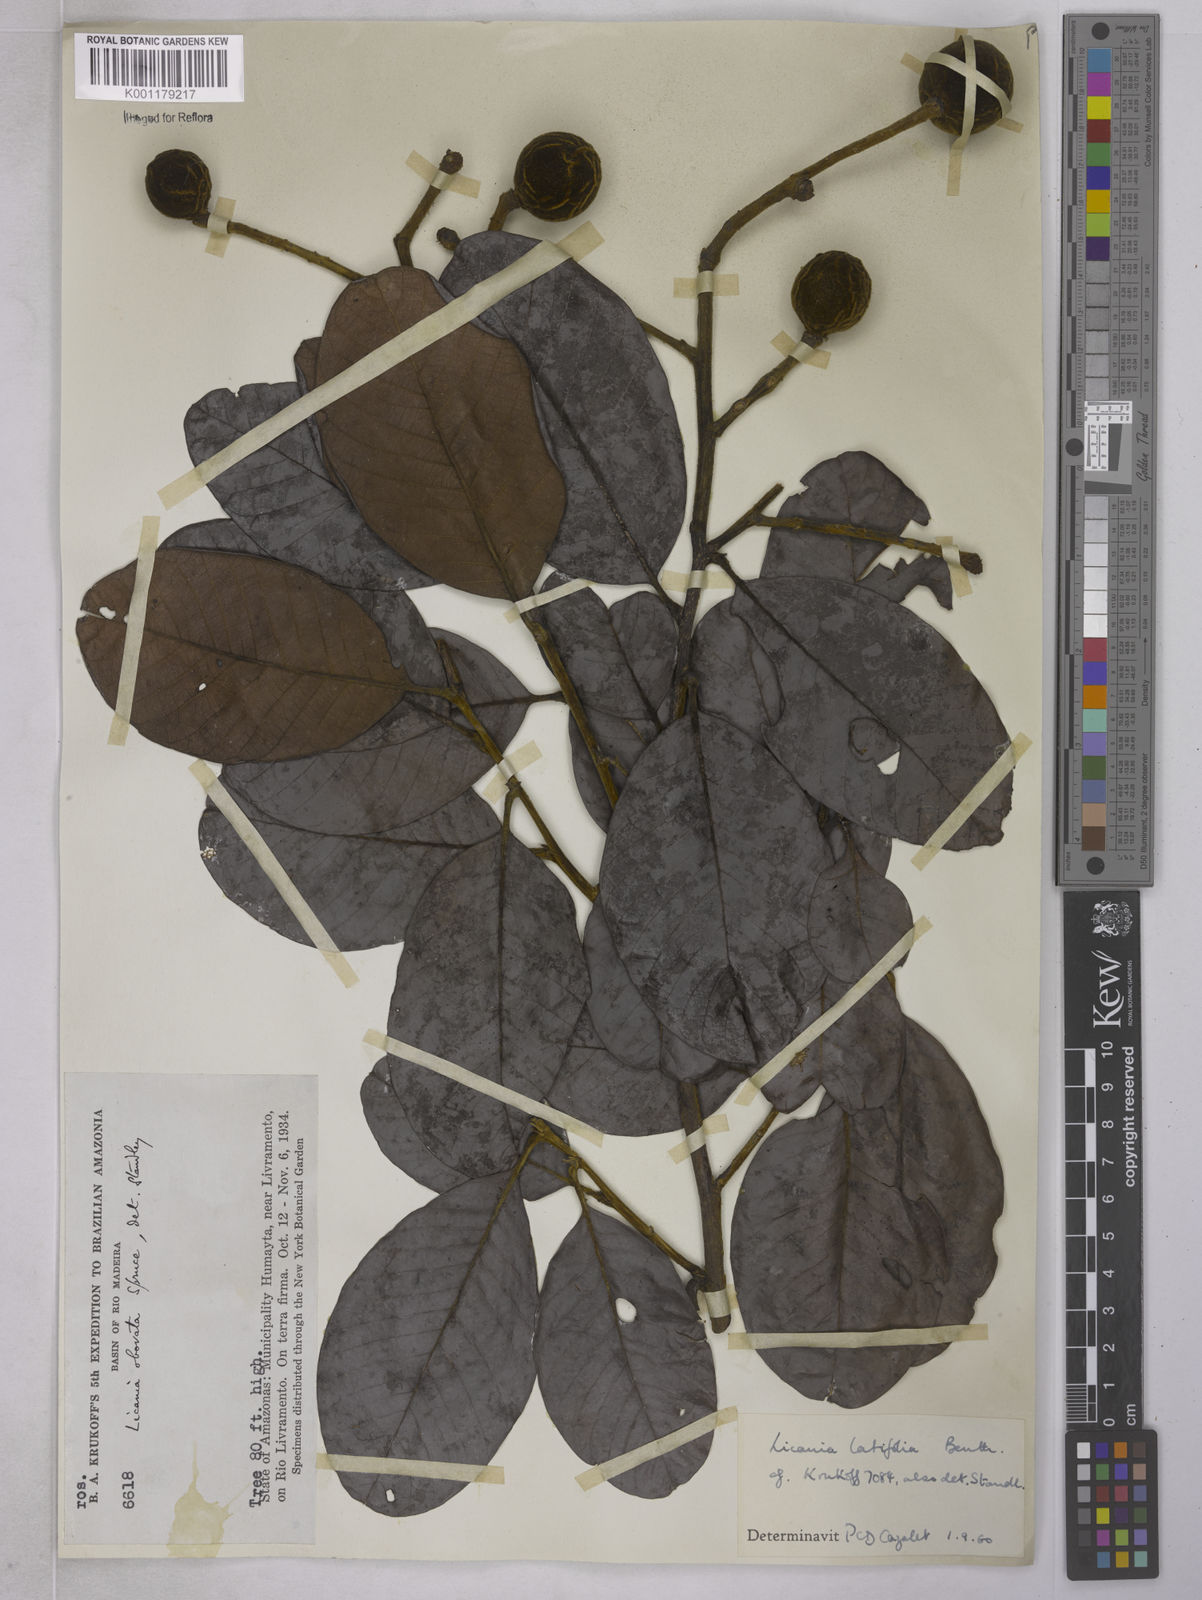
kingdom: Plantae
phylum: Tracheophyta
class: Magnoliopsida
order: Malpighiales
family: Chrysobalanaceae
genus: Hymenopus
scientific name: Hymenopus latifolius
